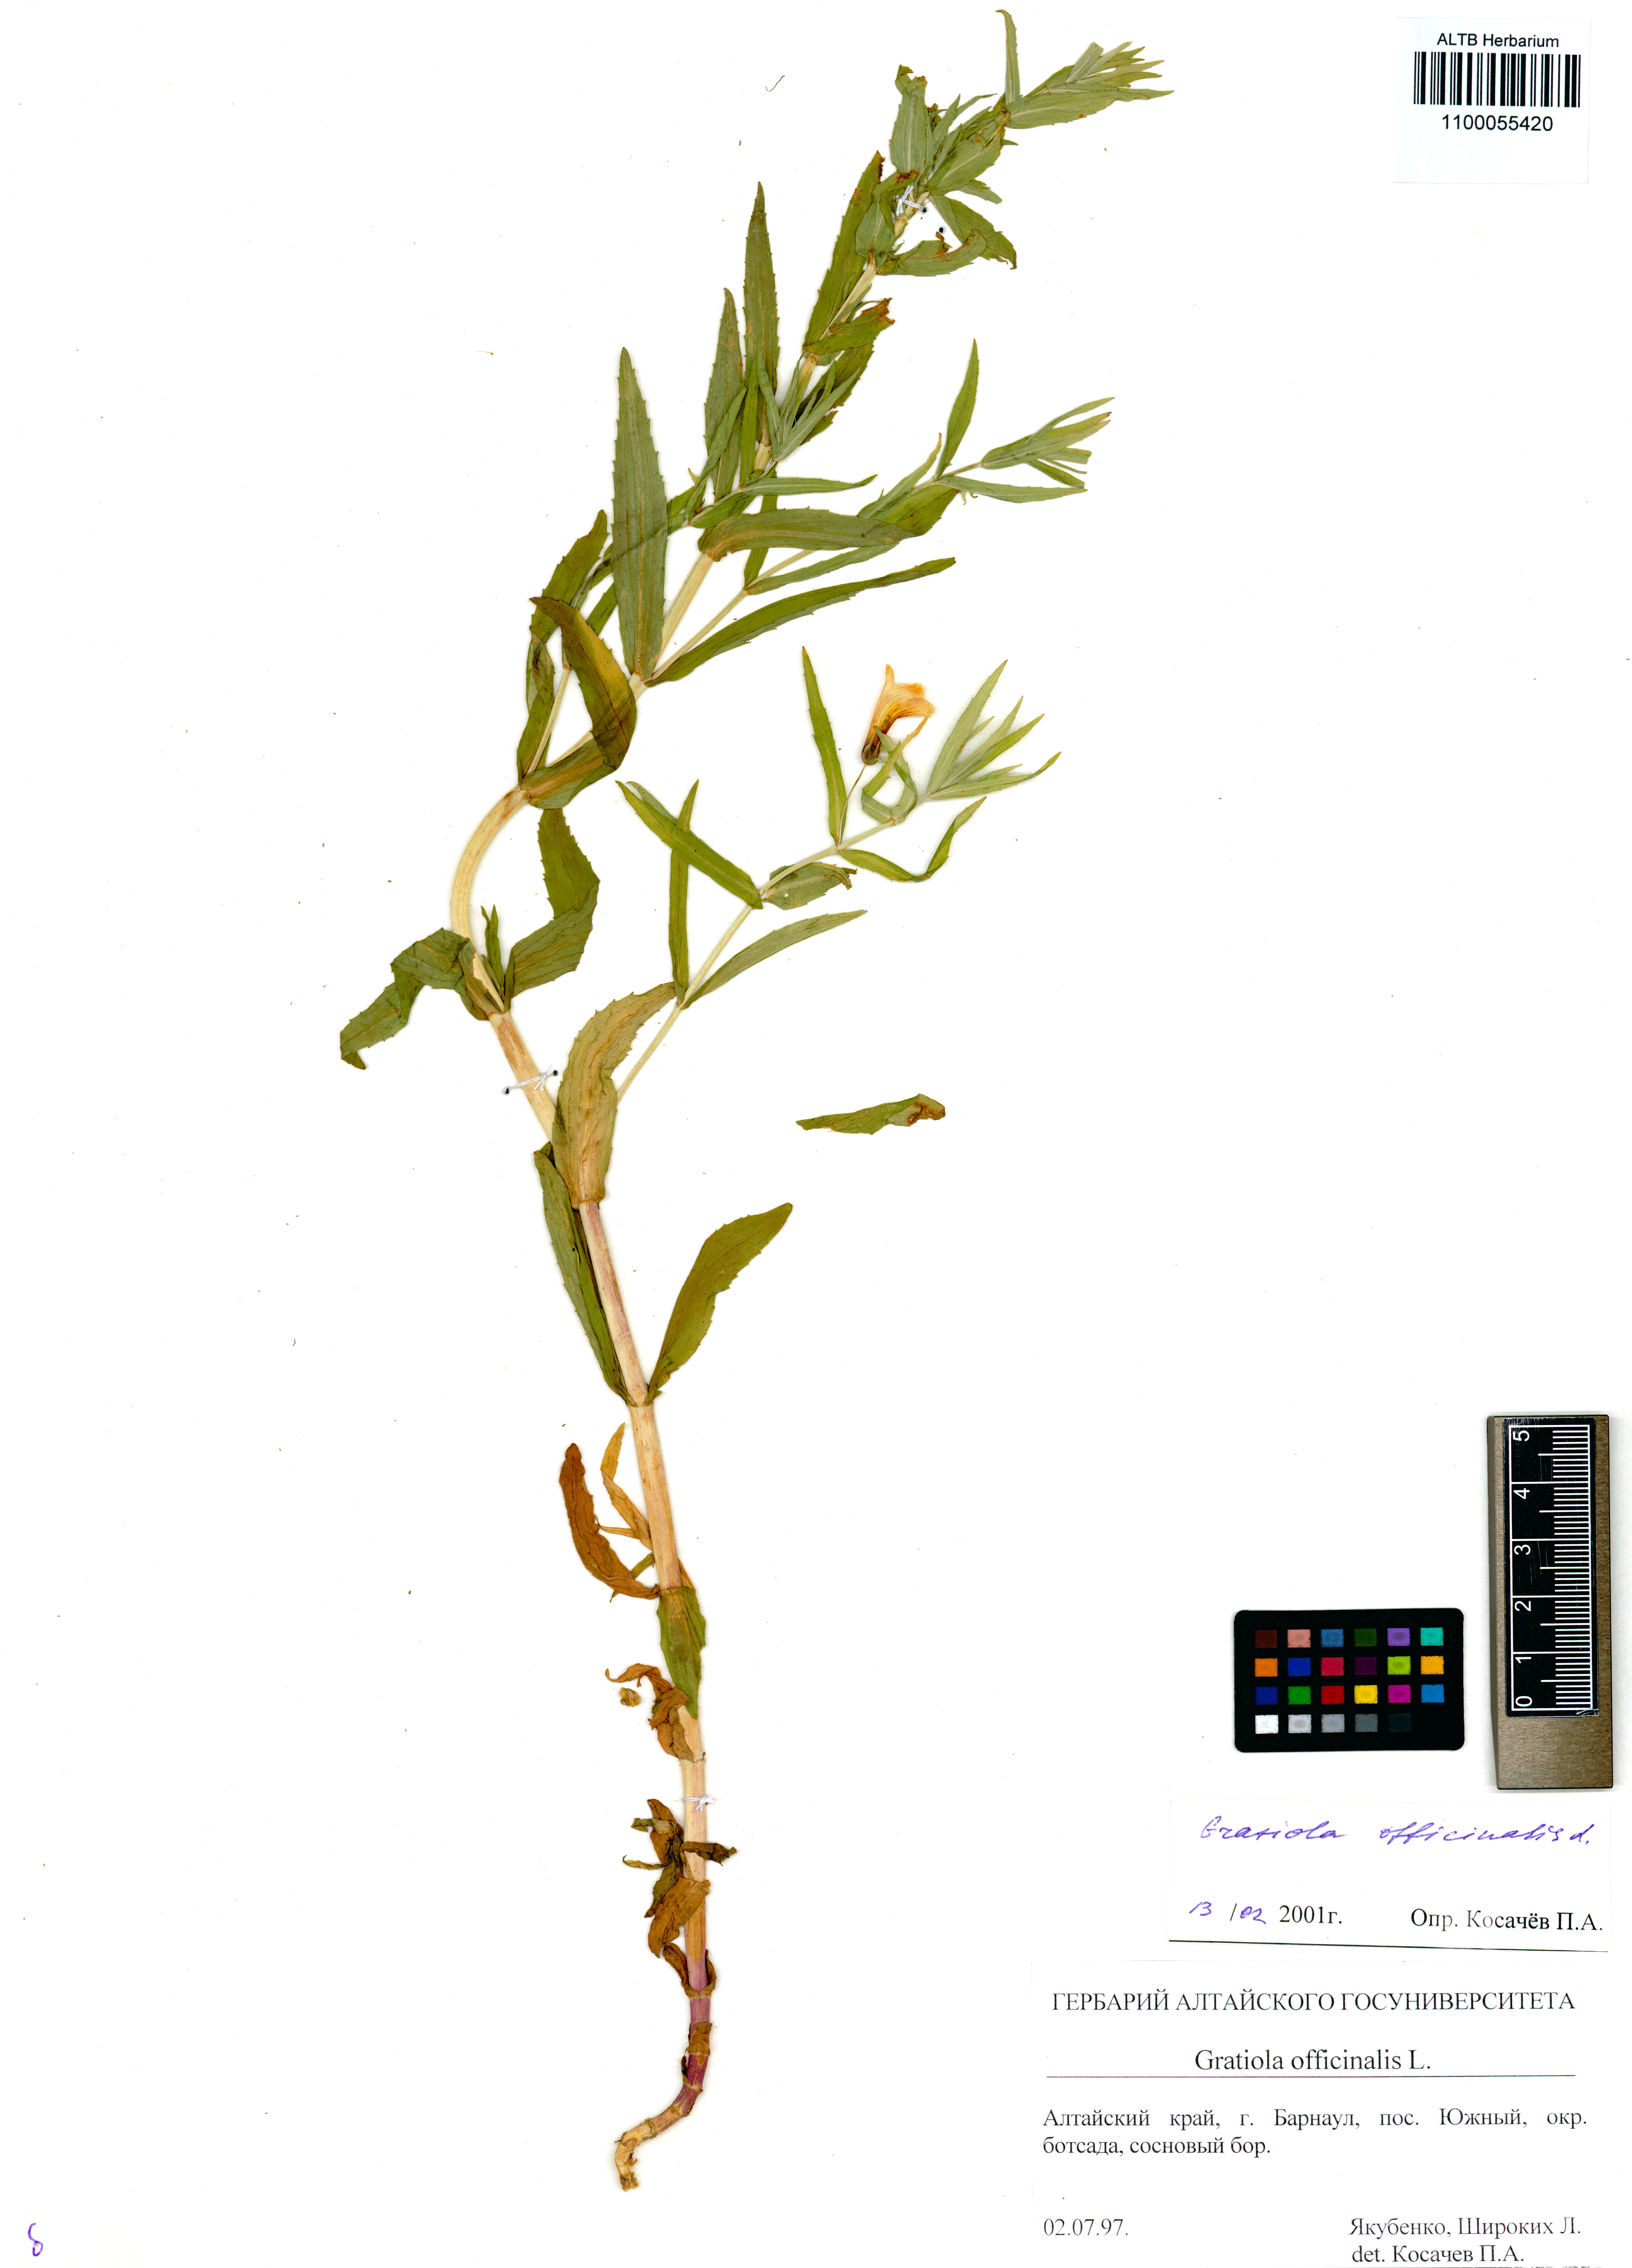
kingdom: Plantae
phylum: Tracheophyta
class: Magnoliopsida
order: Lamiales
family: Plantaginaceae
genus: Gratiola
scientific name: Gratiola officinalis
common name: Gratiola
